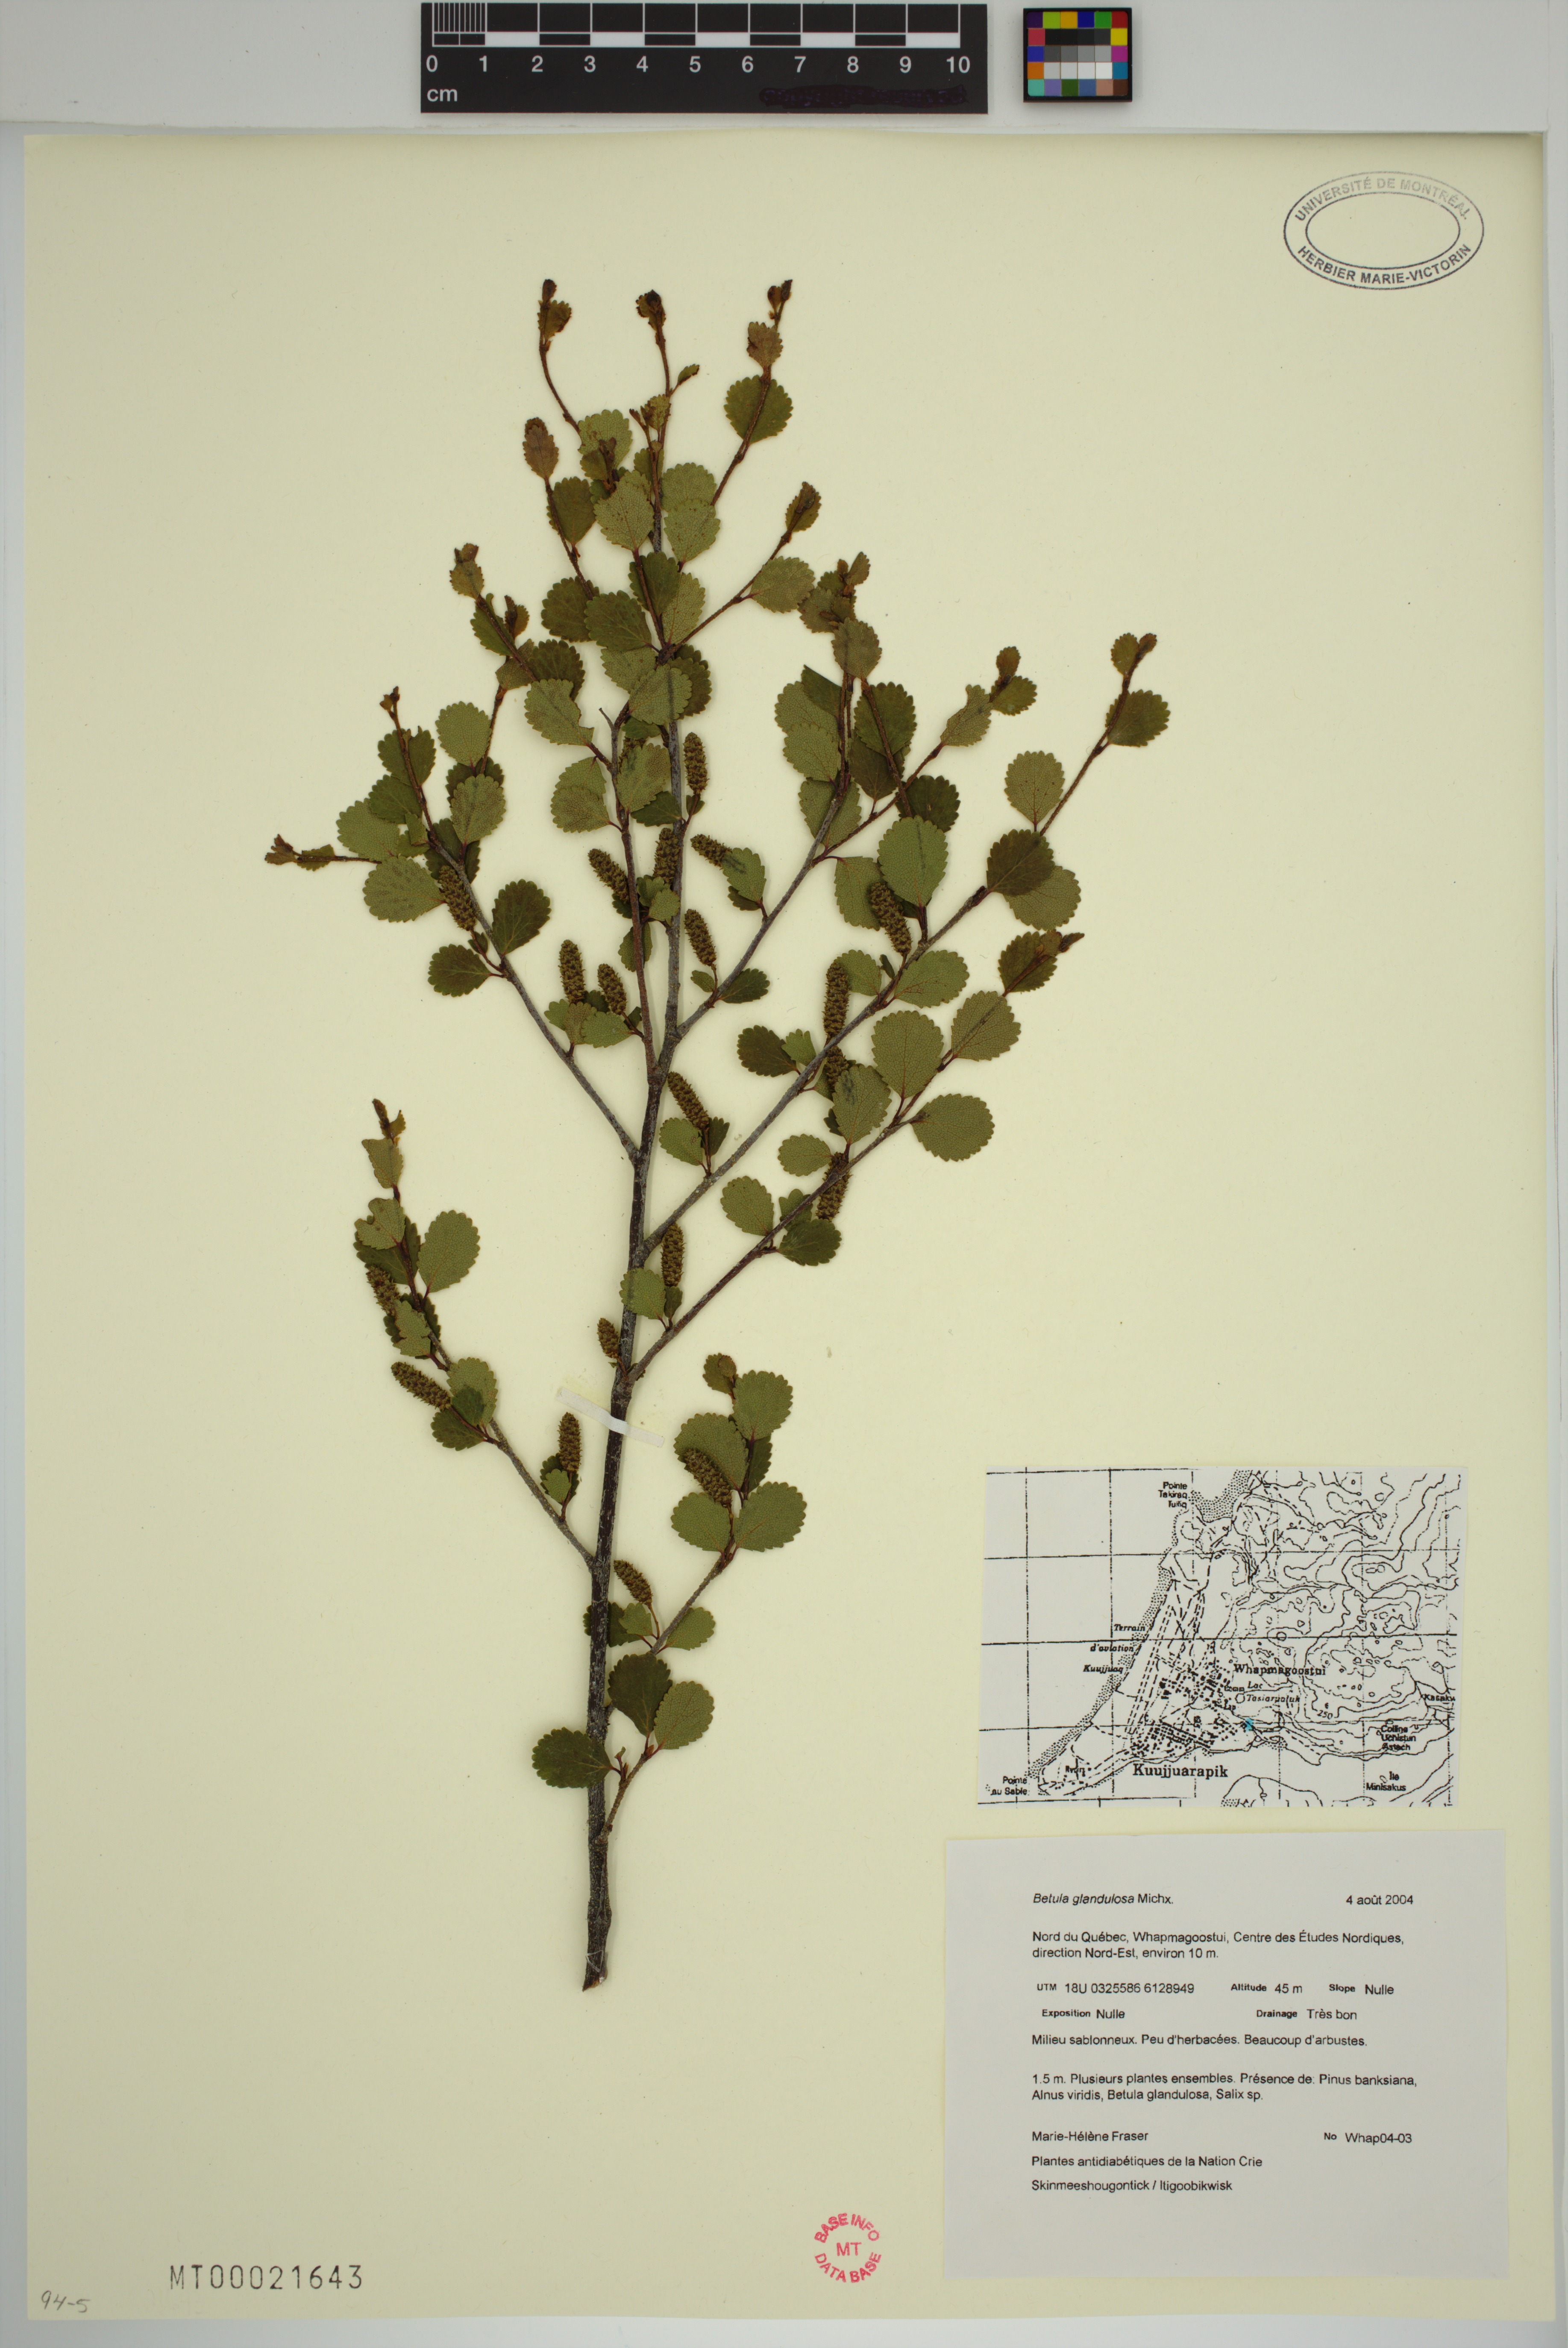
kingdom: Plantae
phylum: Tracheophyta
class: Magnoliopsida
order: Fagales
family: Betulaceae
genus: Betula
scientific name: Betula glandulosa
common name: Dwarf birch
